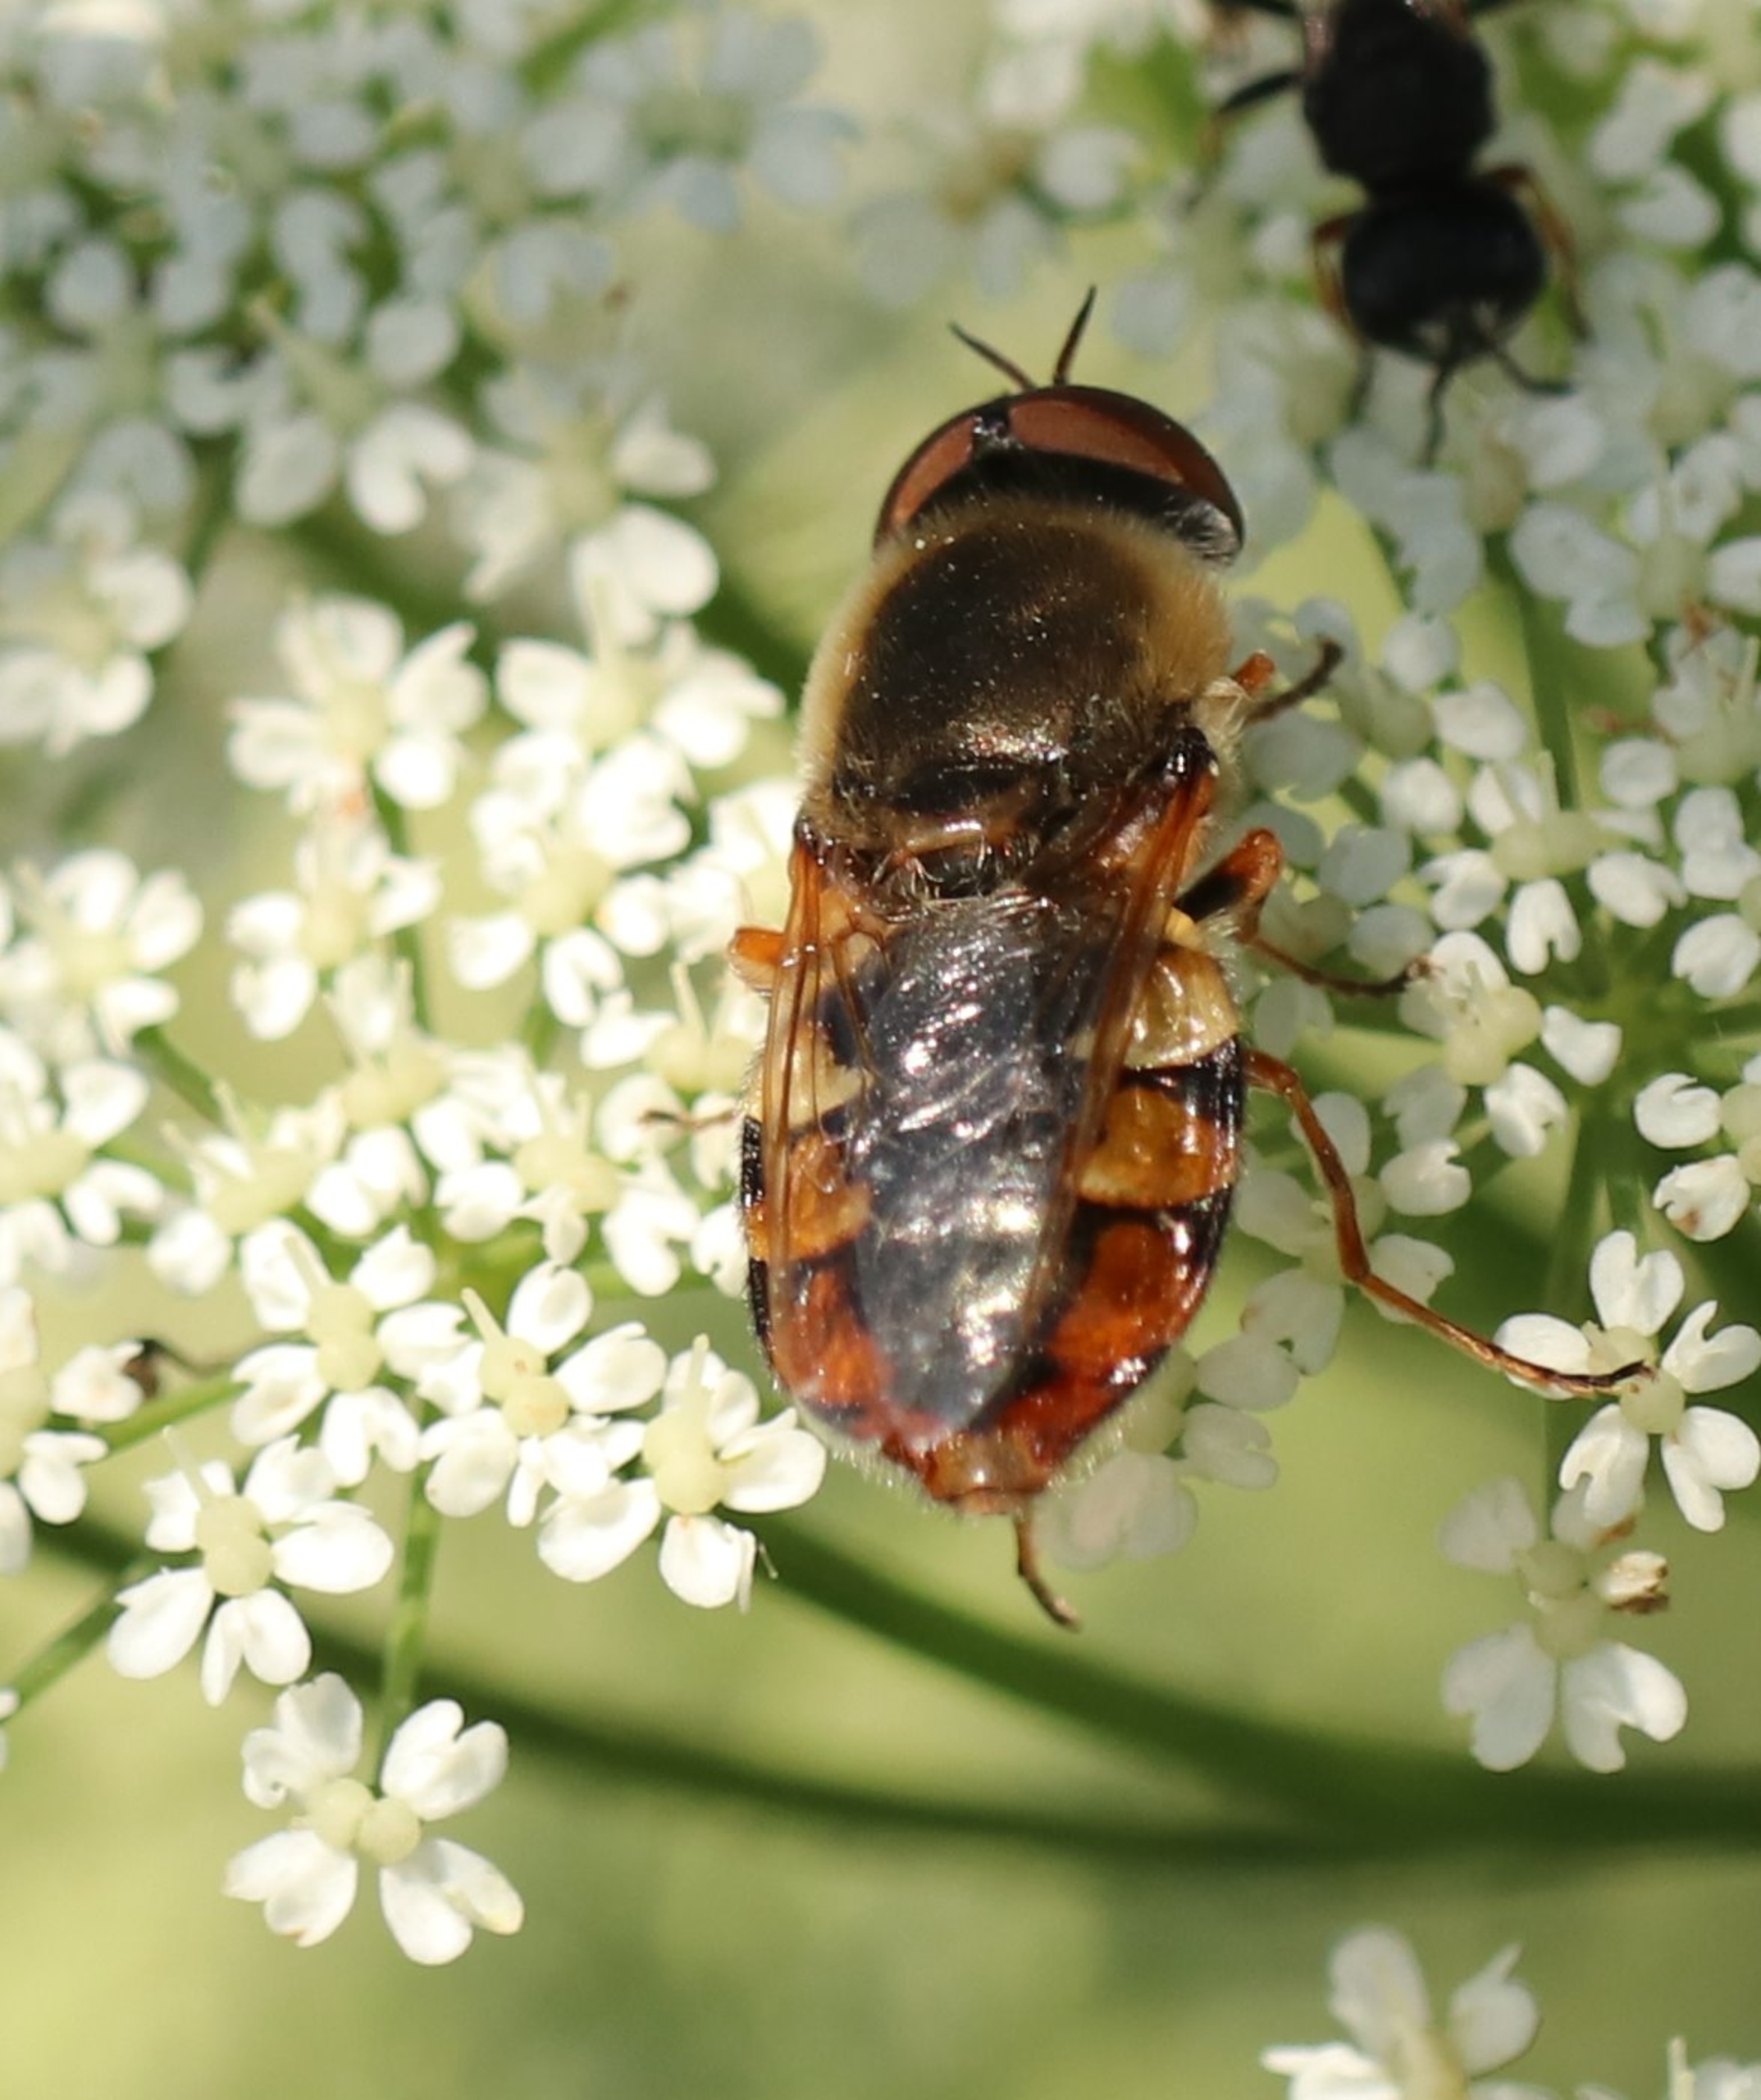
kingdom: Animalia
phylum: Arthropoda
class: Insecta
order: Diptera
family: Stratiomyidae
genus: Odontomyia
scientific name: Odontomyia ornata
